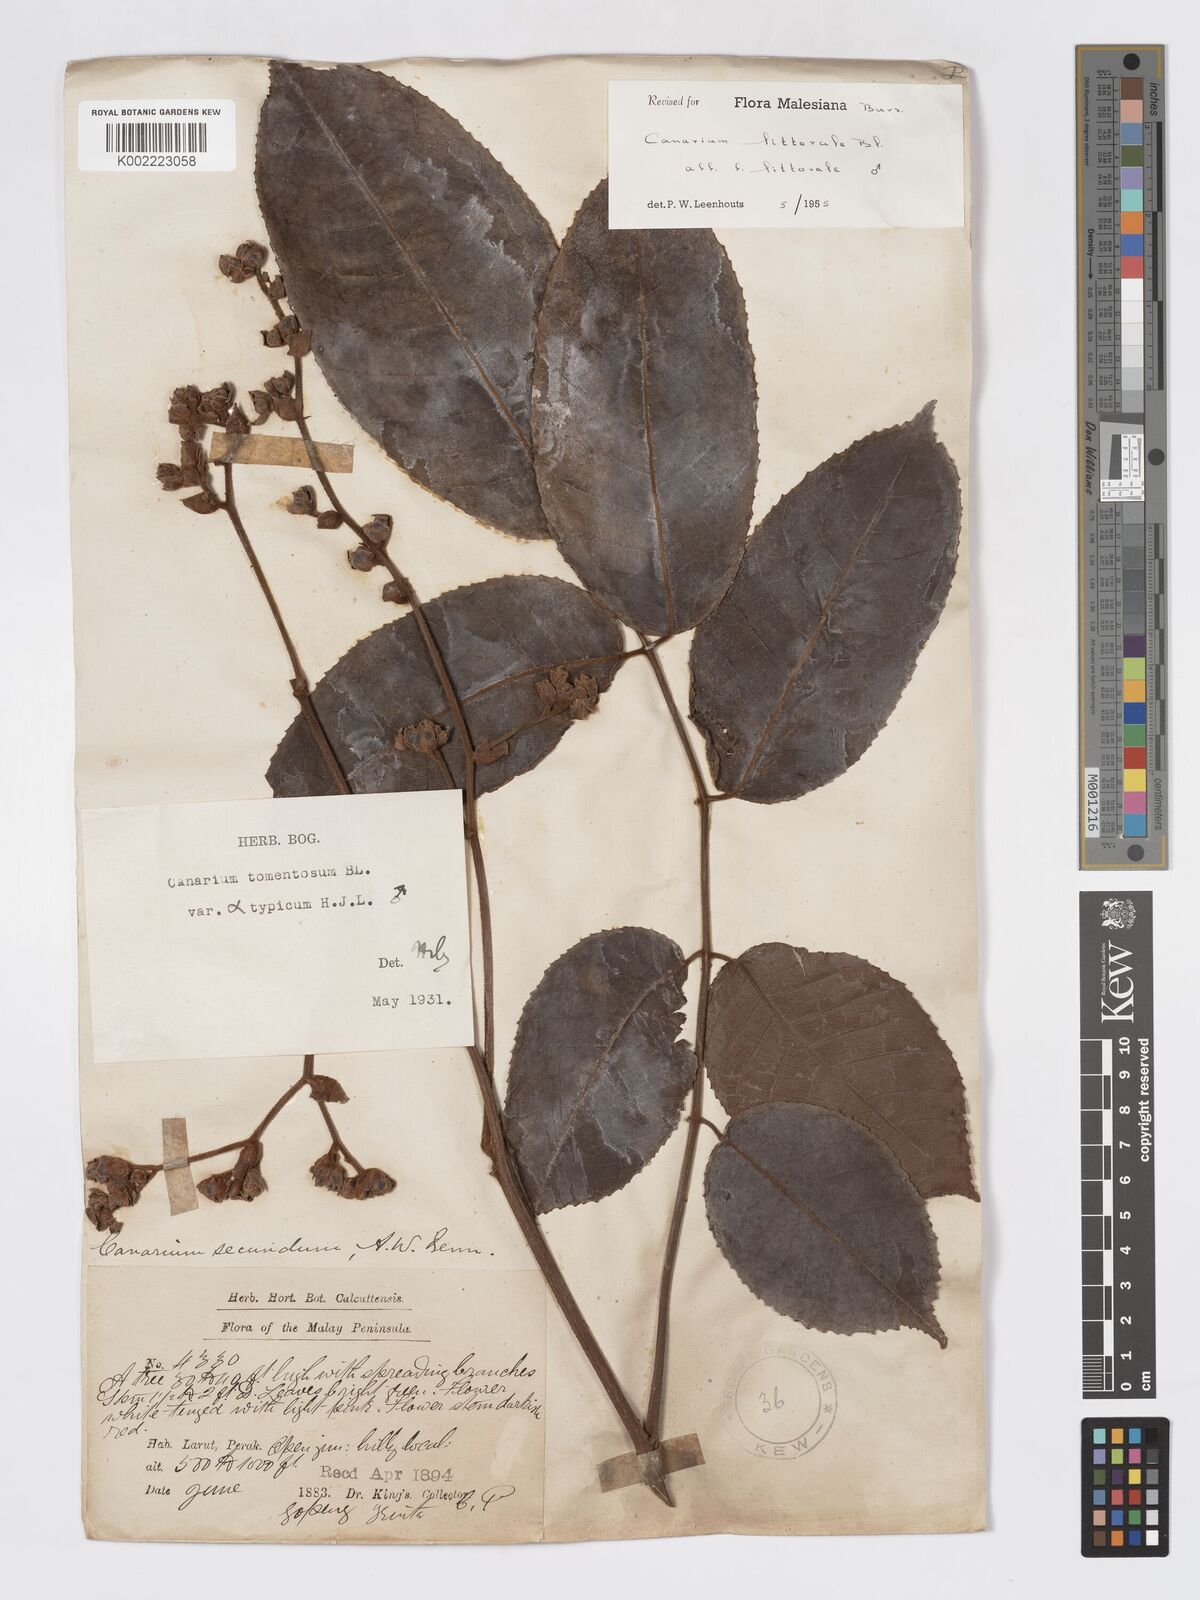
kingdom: Plantae
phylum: Tracheophyta
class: Magnoliopsida
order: Sapindales
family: Burseraceae
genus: Canarium
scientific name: Canarium littorale
